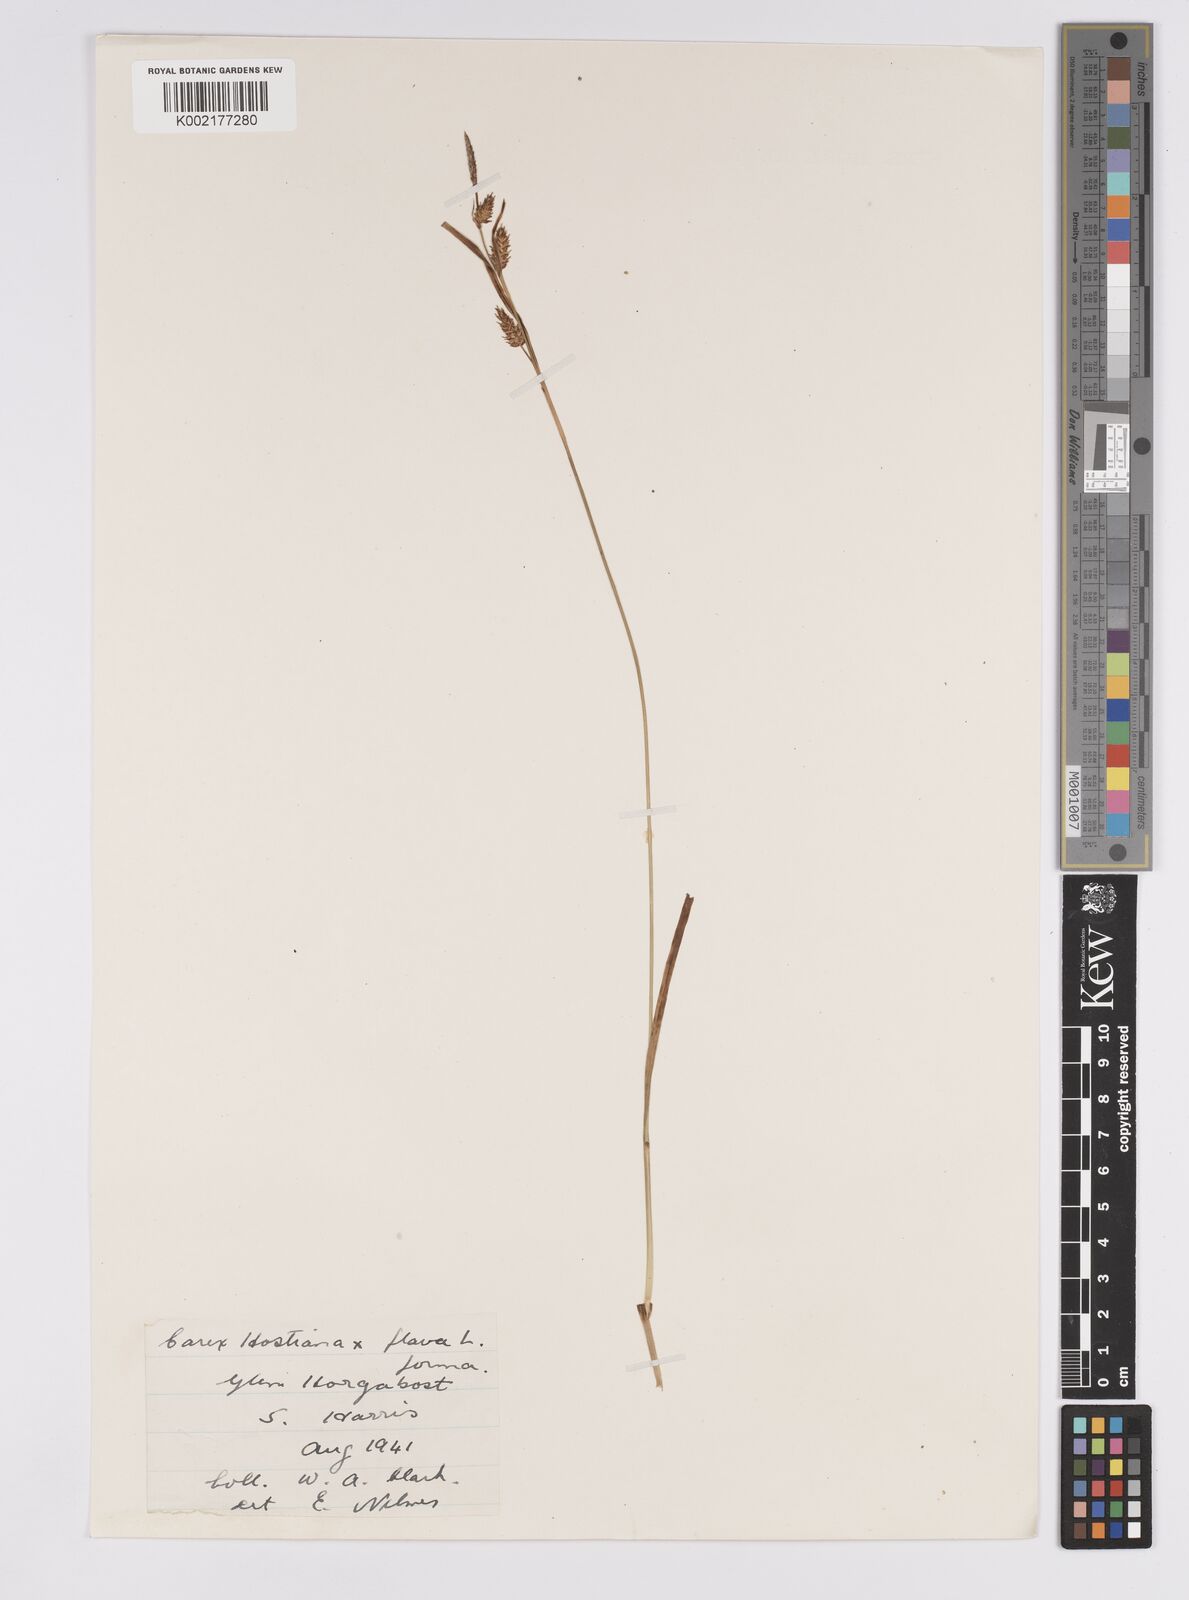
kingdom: Plantae
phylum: Tracheophyta
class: Liliopsida
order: Poales
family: Cyperaceae
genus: Carex
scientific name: Carex hostiana
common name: Tawny sedge
